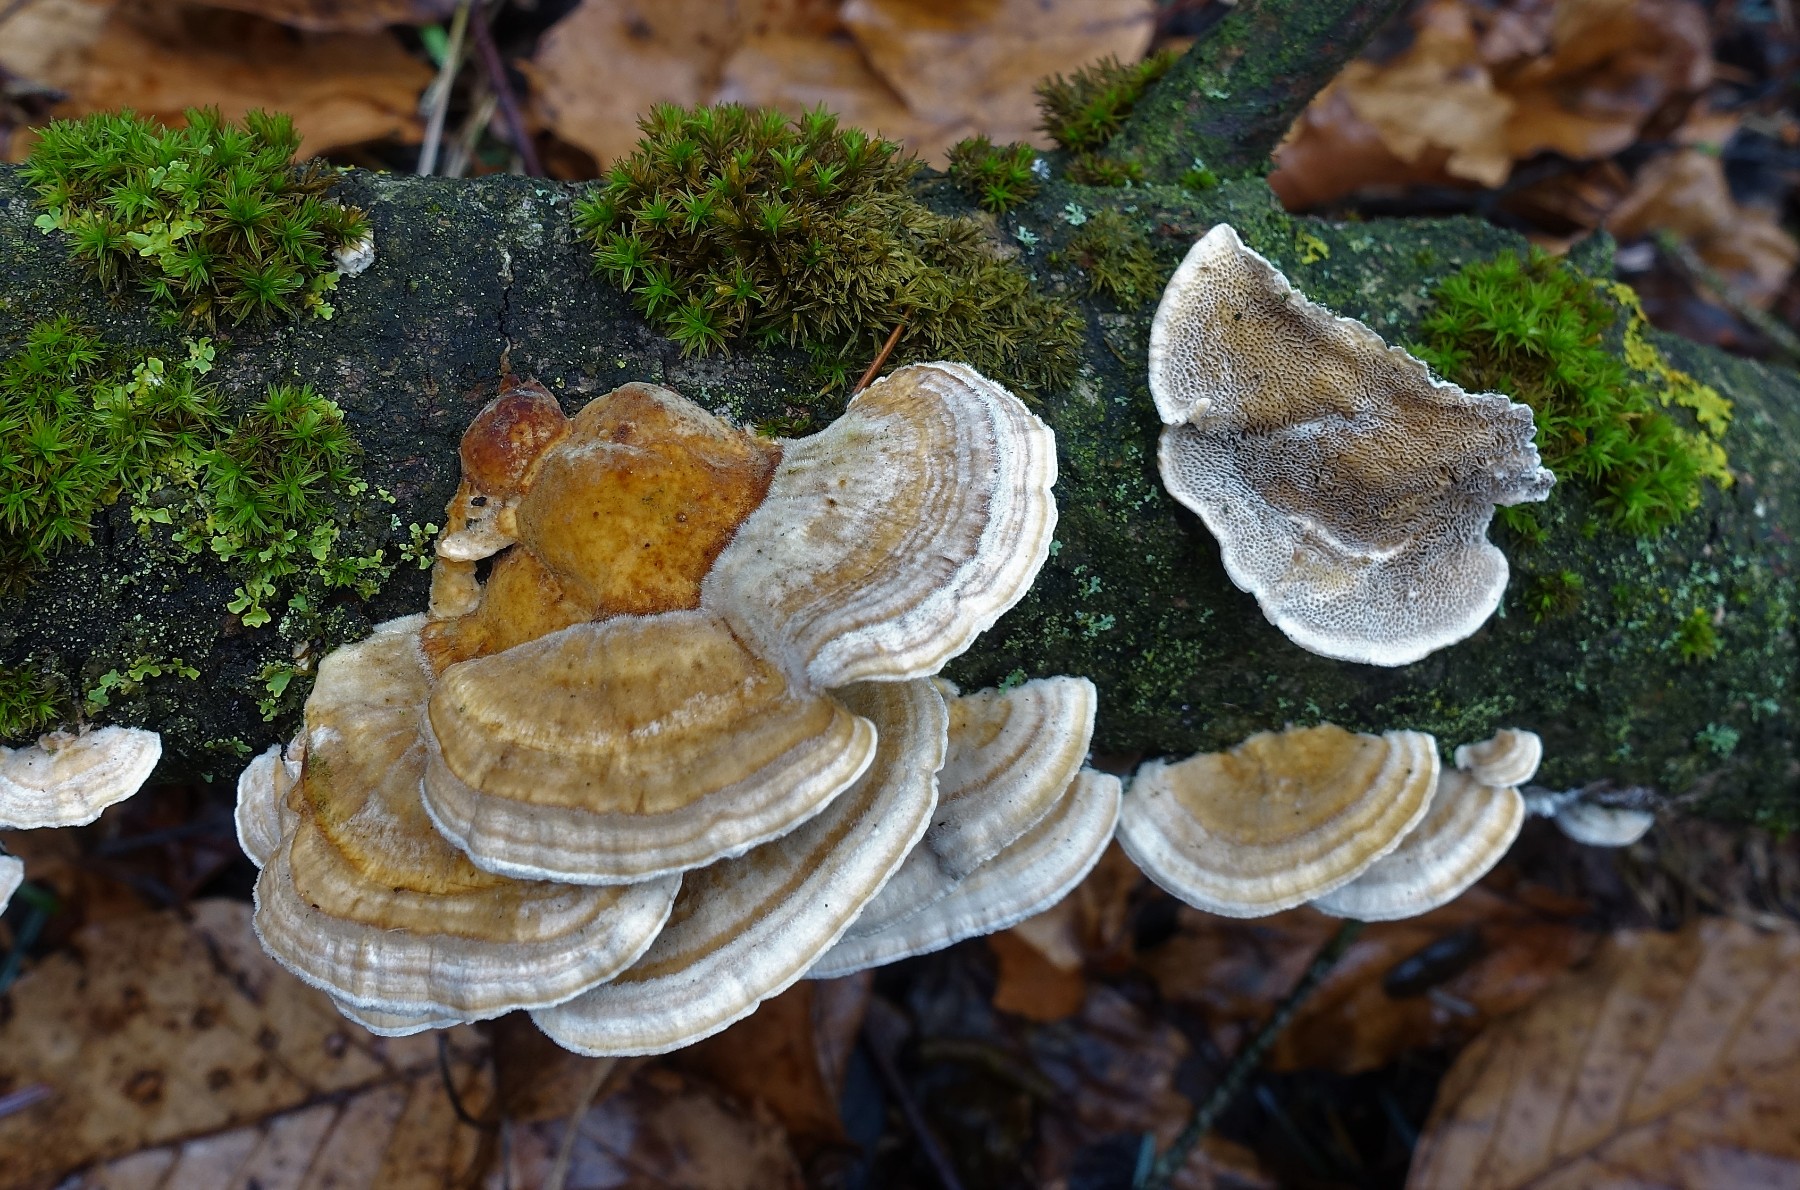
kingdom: Fungi
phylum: Basidiomycota
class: Agaricomycetes
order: Polyporales
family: Polyporaceae
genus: Trametes
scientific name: Trametes ochracea
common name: bæltet læderporesvamp
